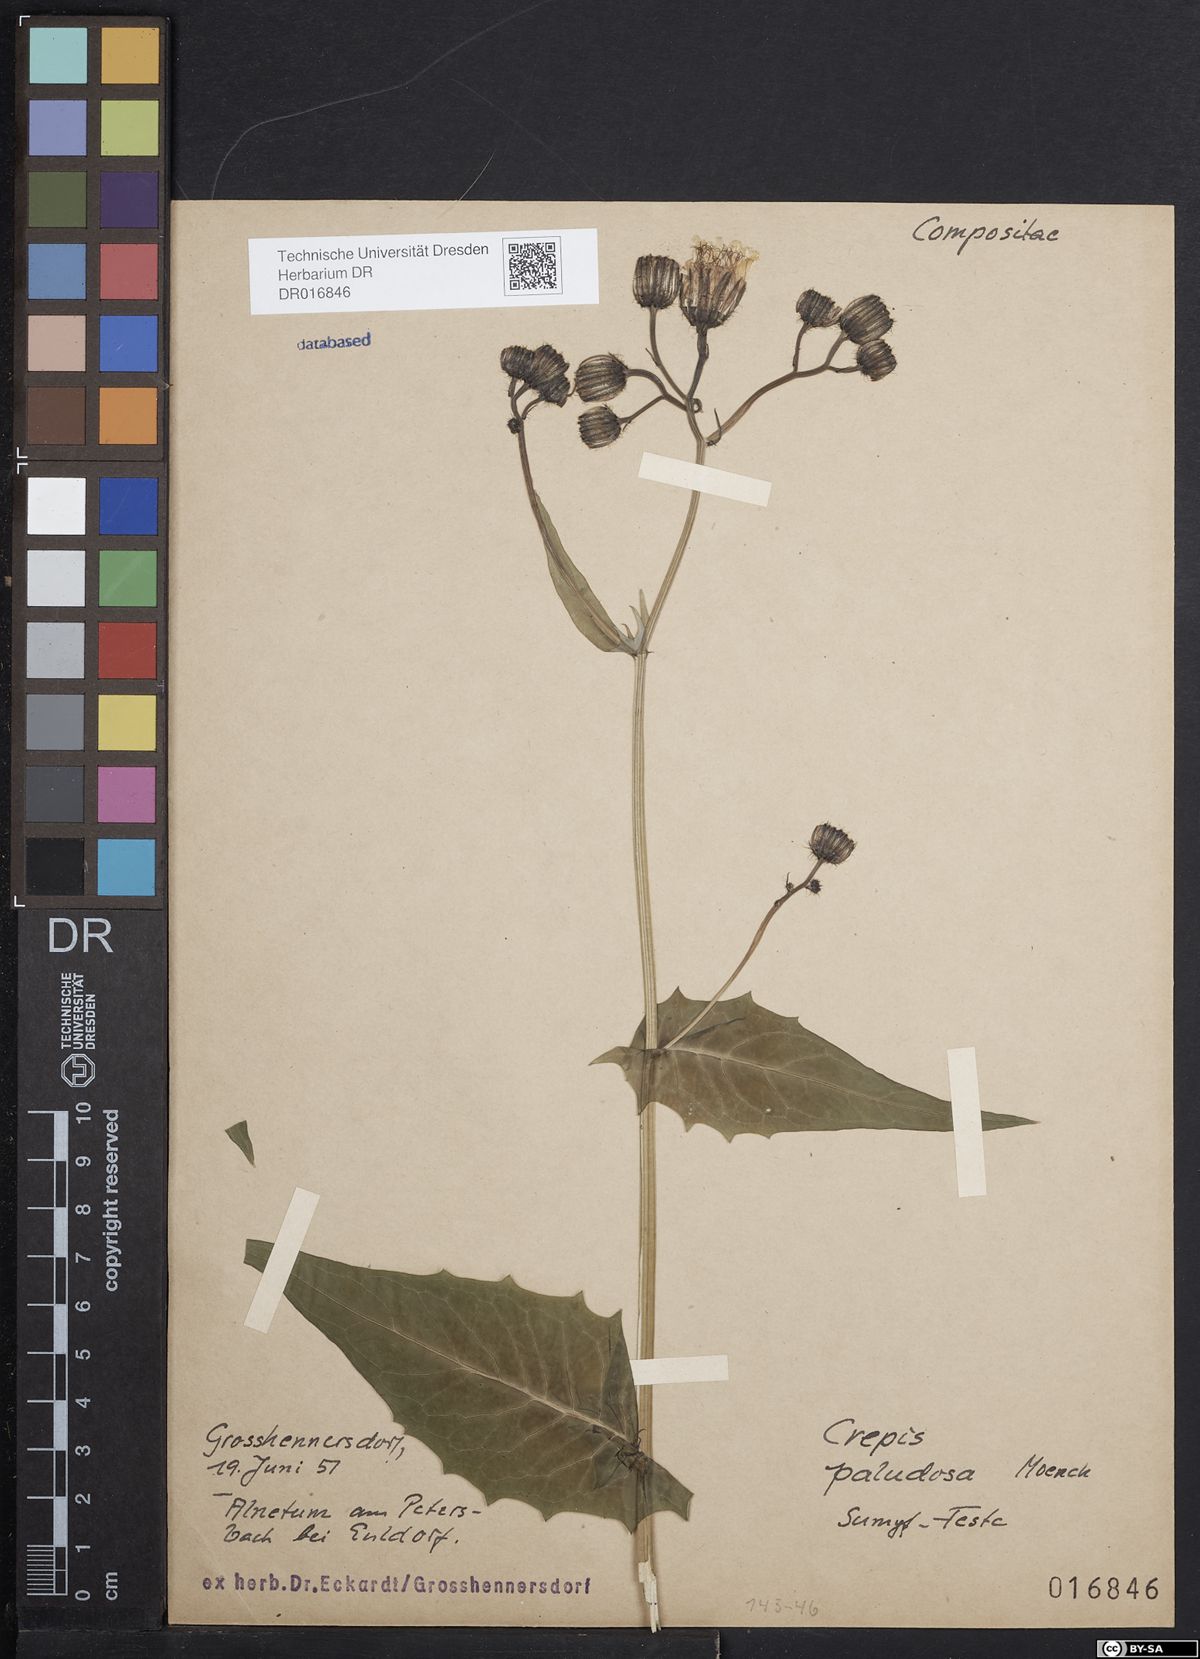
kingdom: Plantae
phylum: Tracheophyta
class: Magnoliopsida
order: Asterales
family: Asteraceae
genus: Crepis
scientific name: Crepis paludosa
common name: Marsh hawk's-beard
